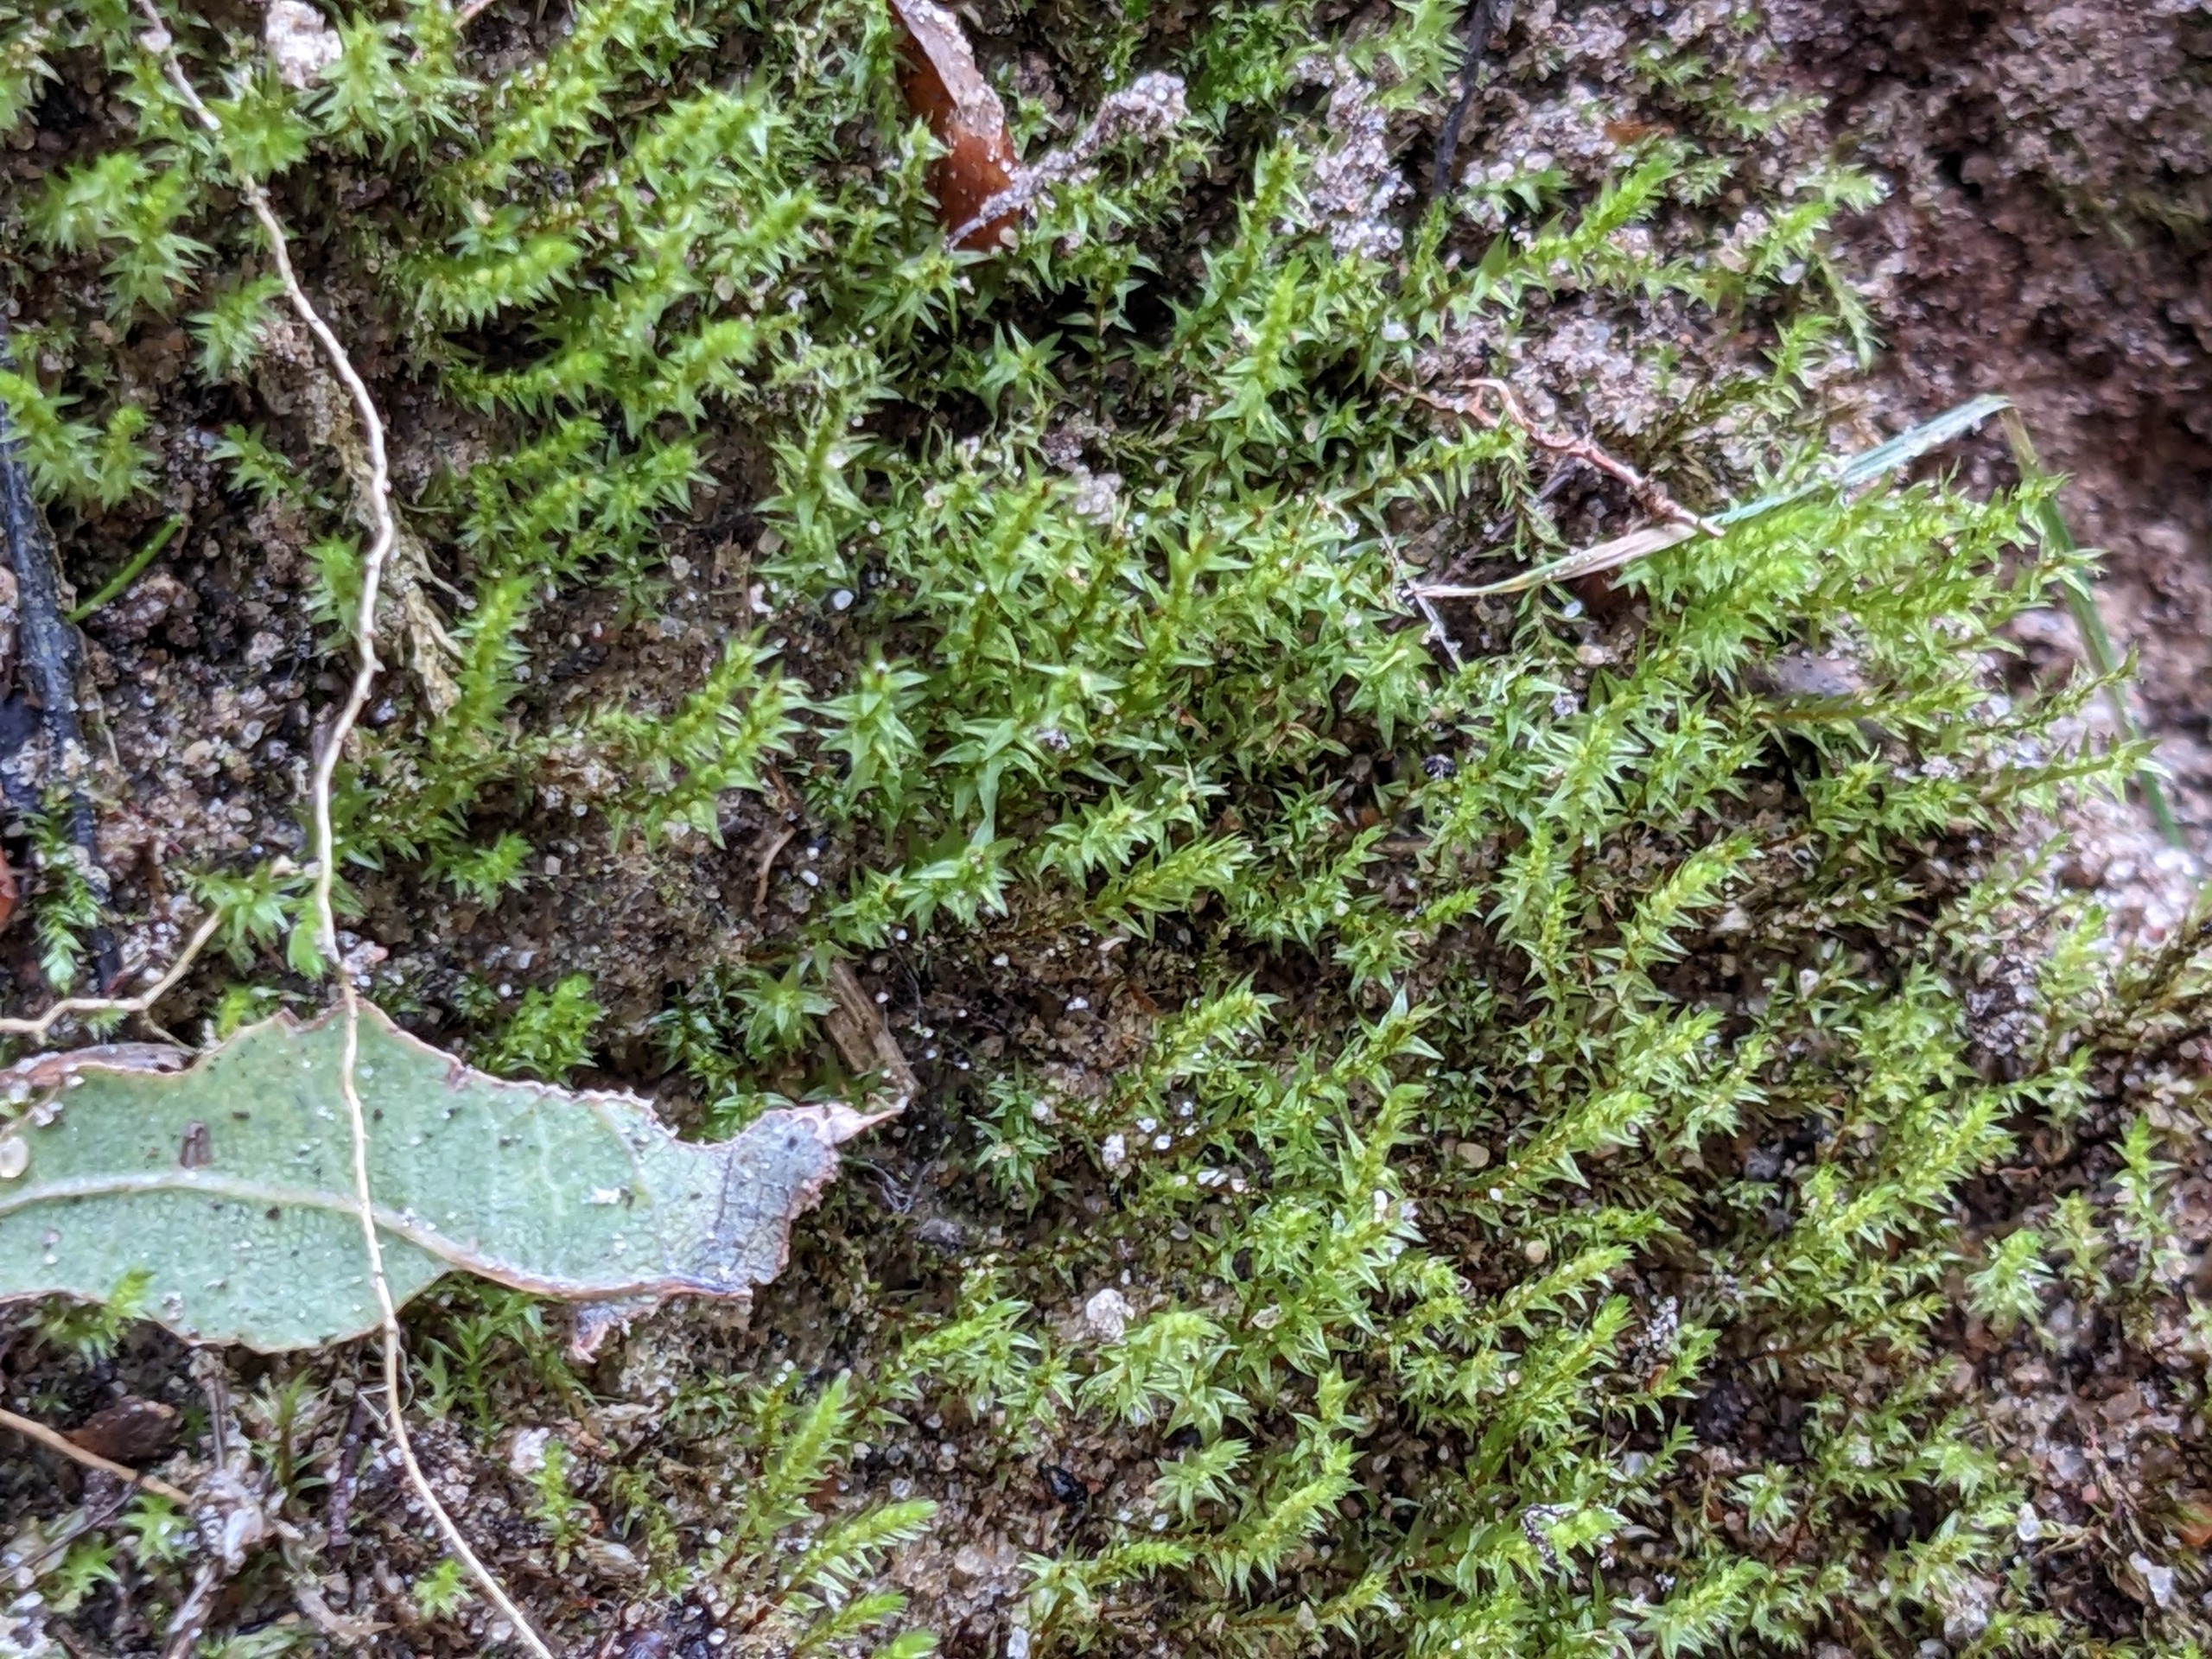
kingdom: Plantae
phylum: Bryophyta
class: Bryopsida
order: Bryales
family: Mniaceae
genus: Pohlia
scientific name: Pohlia annotina
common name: Blød nikkemos
